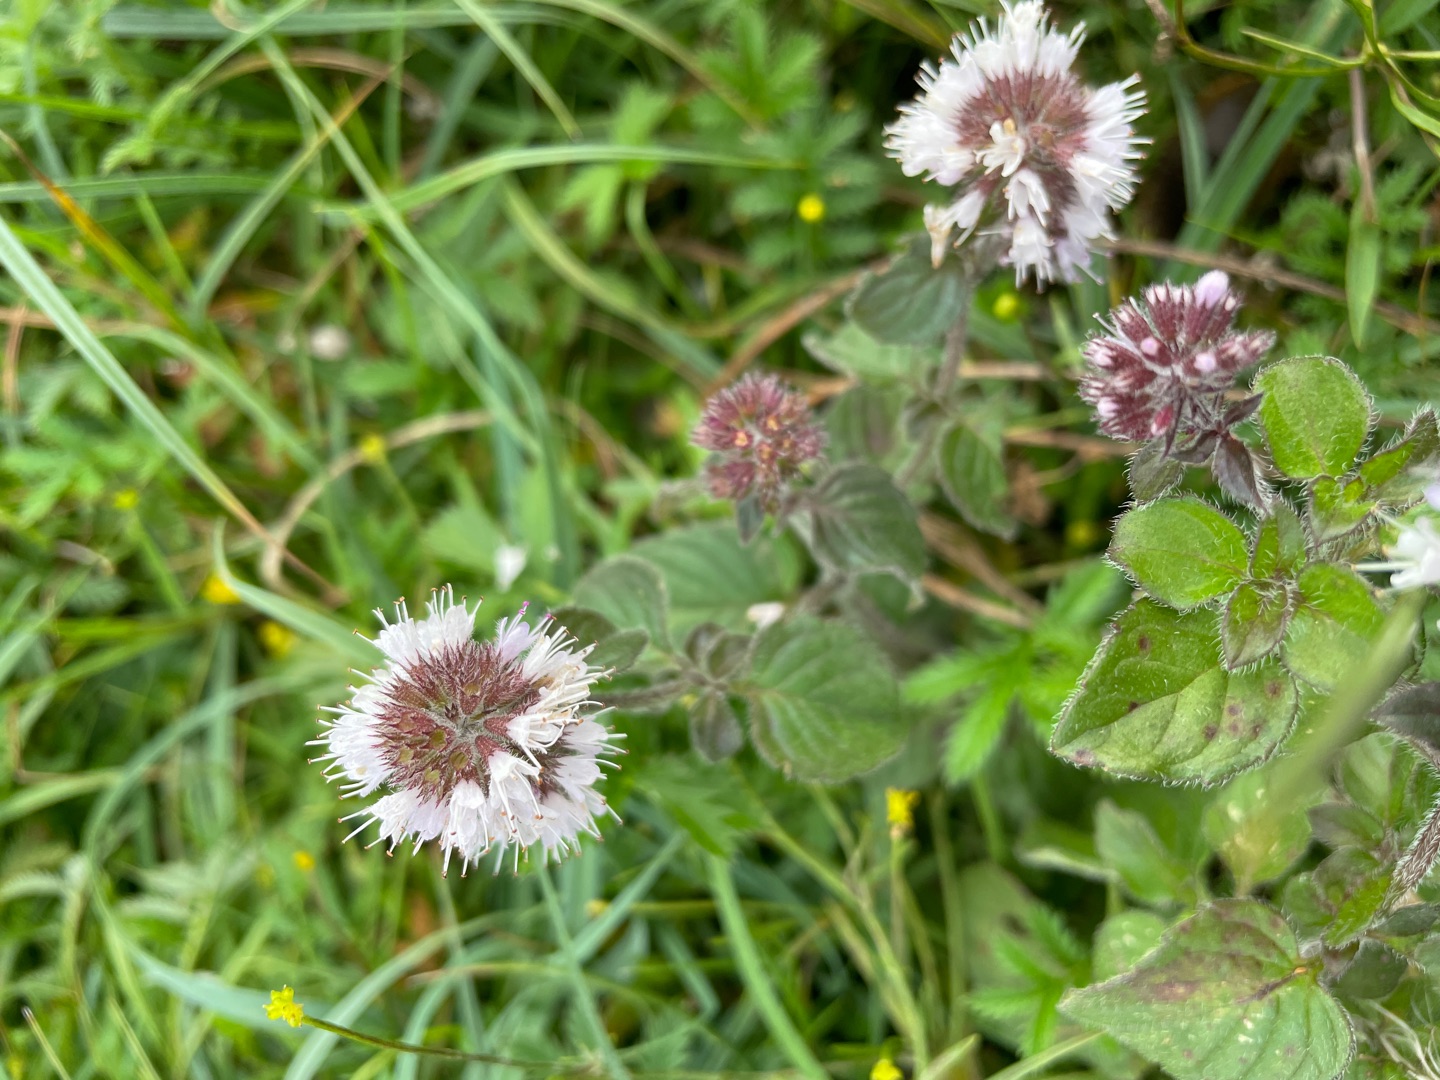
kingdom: Plantae
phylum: Tracheophyta
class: Magnoliopsida
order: Lamiales
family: Lamiaceae
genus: Mentha
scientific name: Mentha aquatica
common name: Vand-mynte
